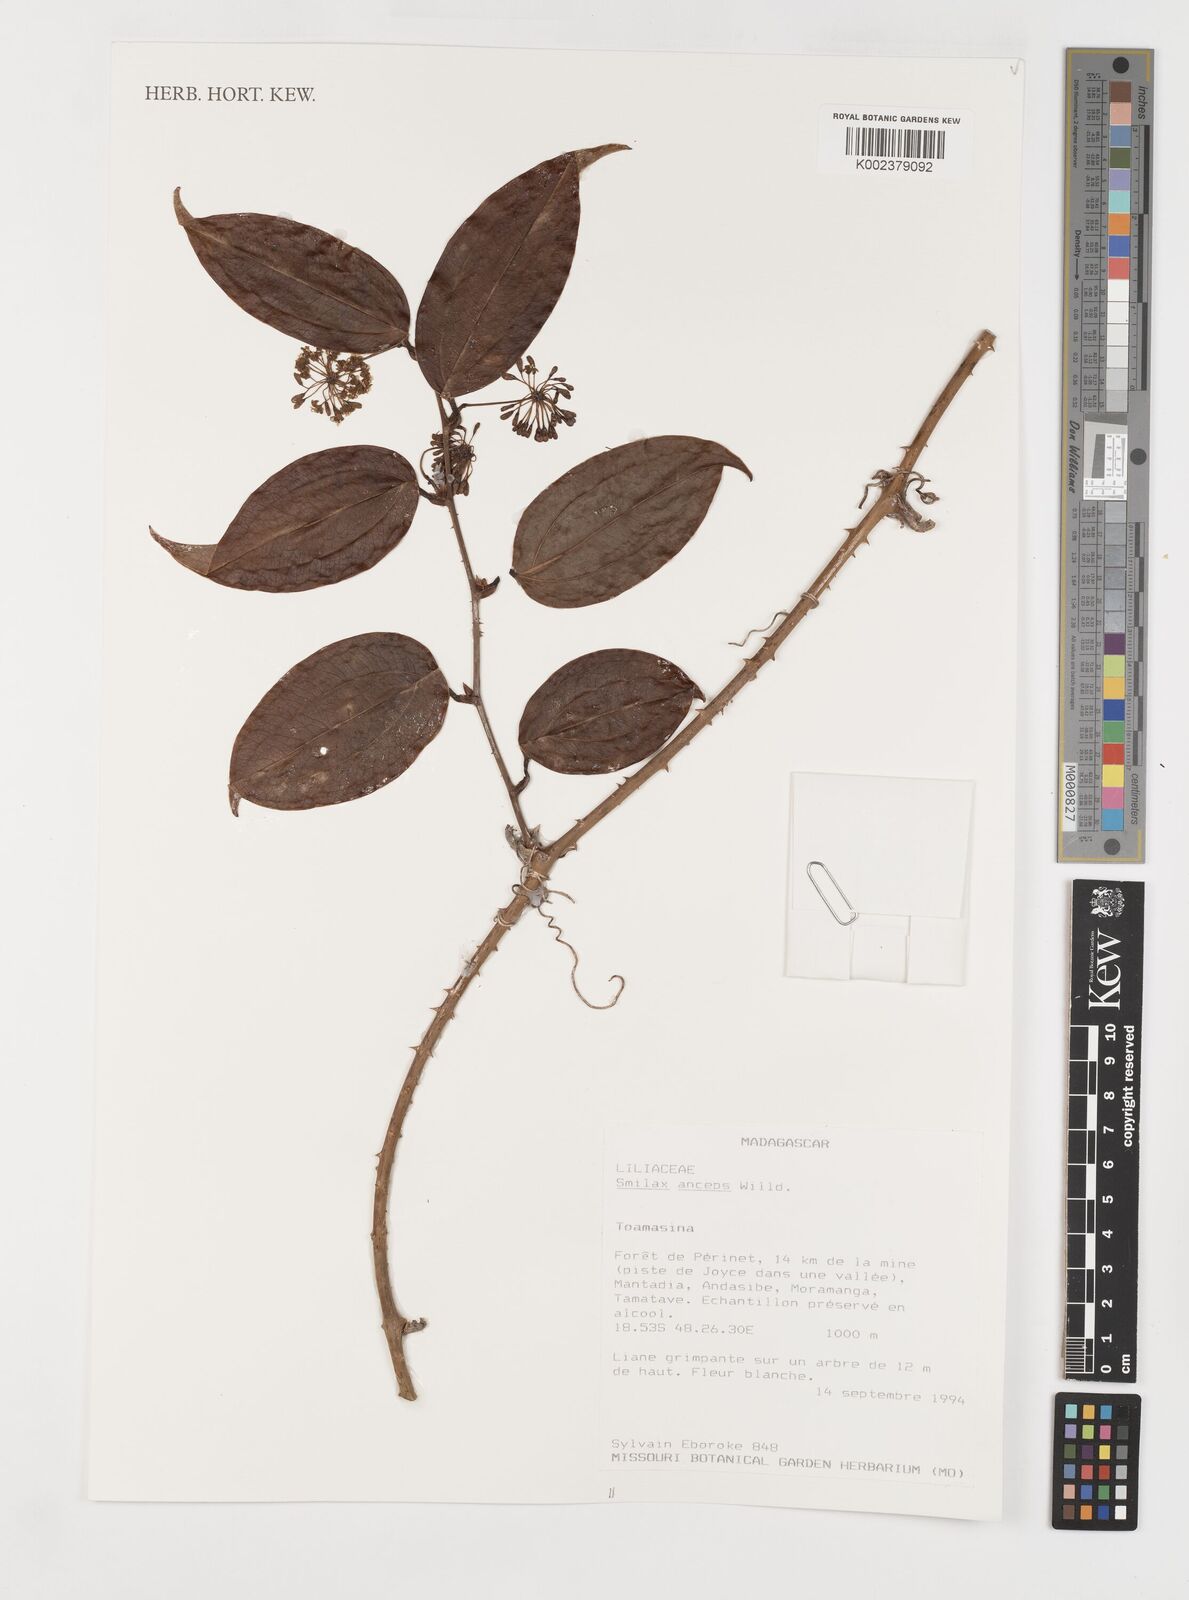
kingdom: Plantae
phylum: Tracheophyta
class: Liliopsida
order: Liliales
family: Smilacaceae
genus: Smilax
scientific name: Smilax anceps
